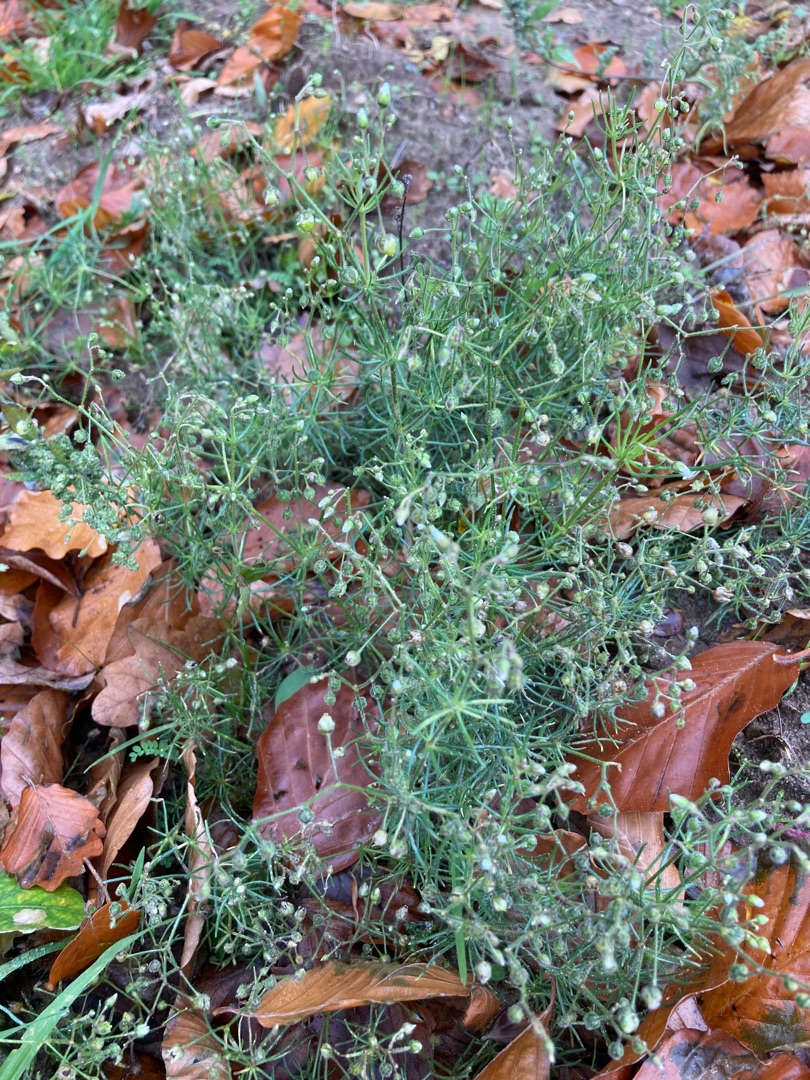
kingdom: Plantae
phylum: Tracheophyta
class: Magnoliopsida
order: Caryophyllales
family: Caryophyllaceae
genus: Spergula
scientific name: Spergula arvensis
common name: Almindelig spergel
